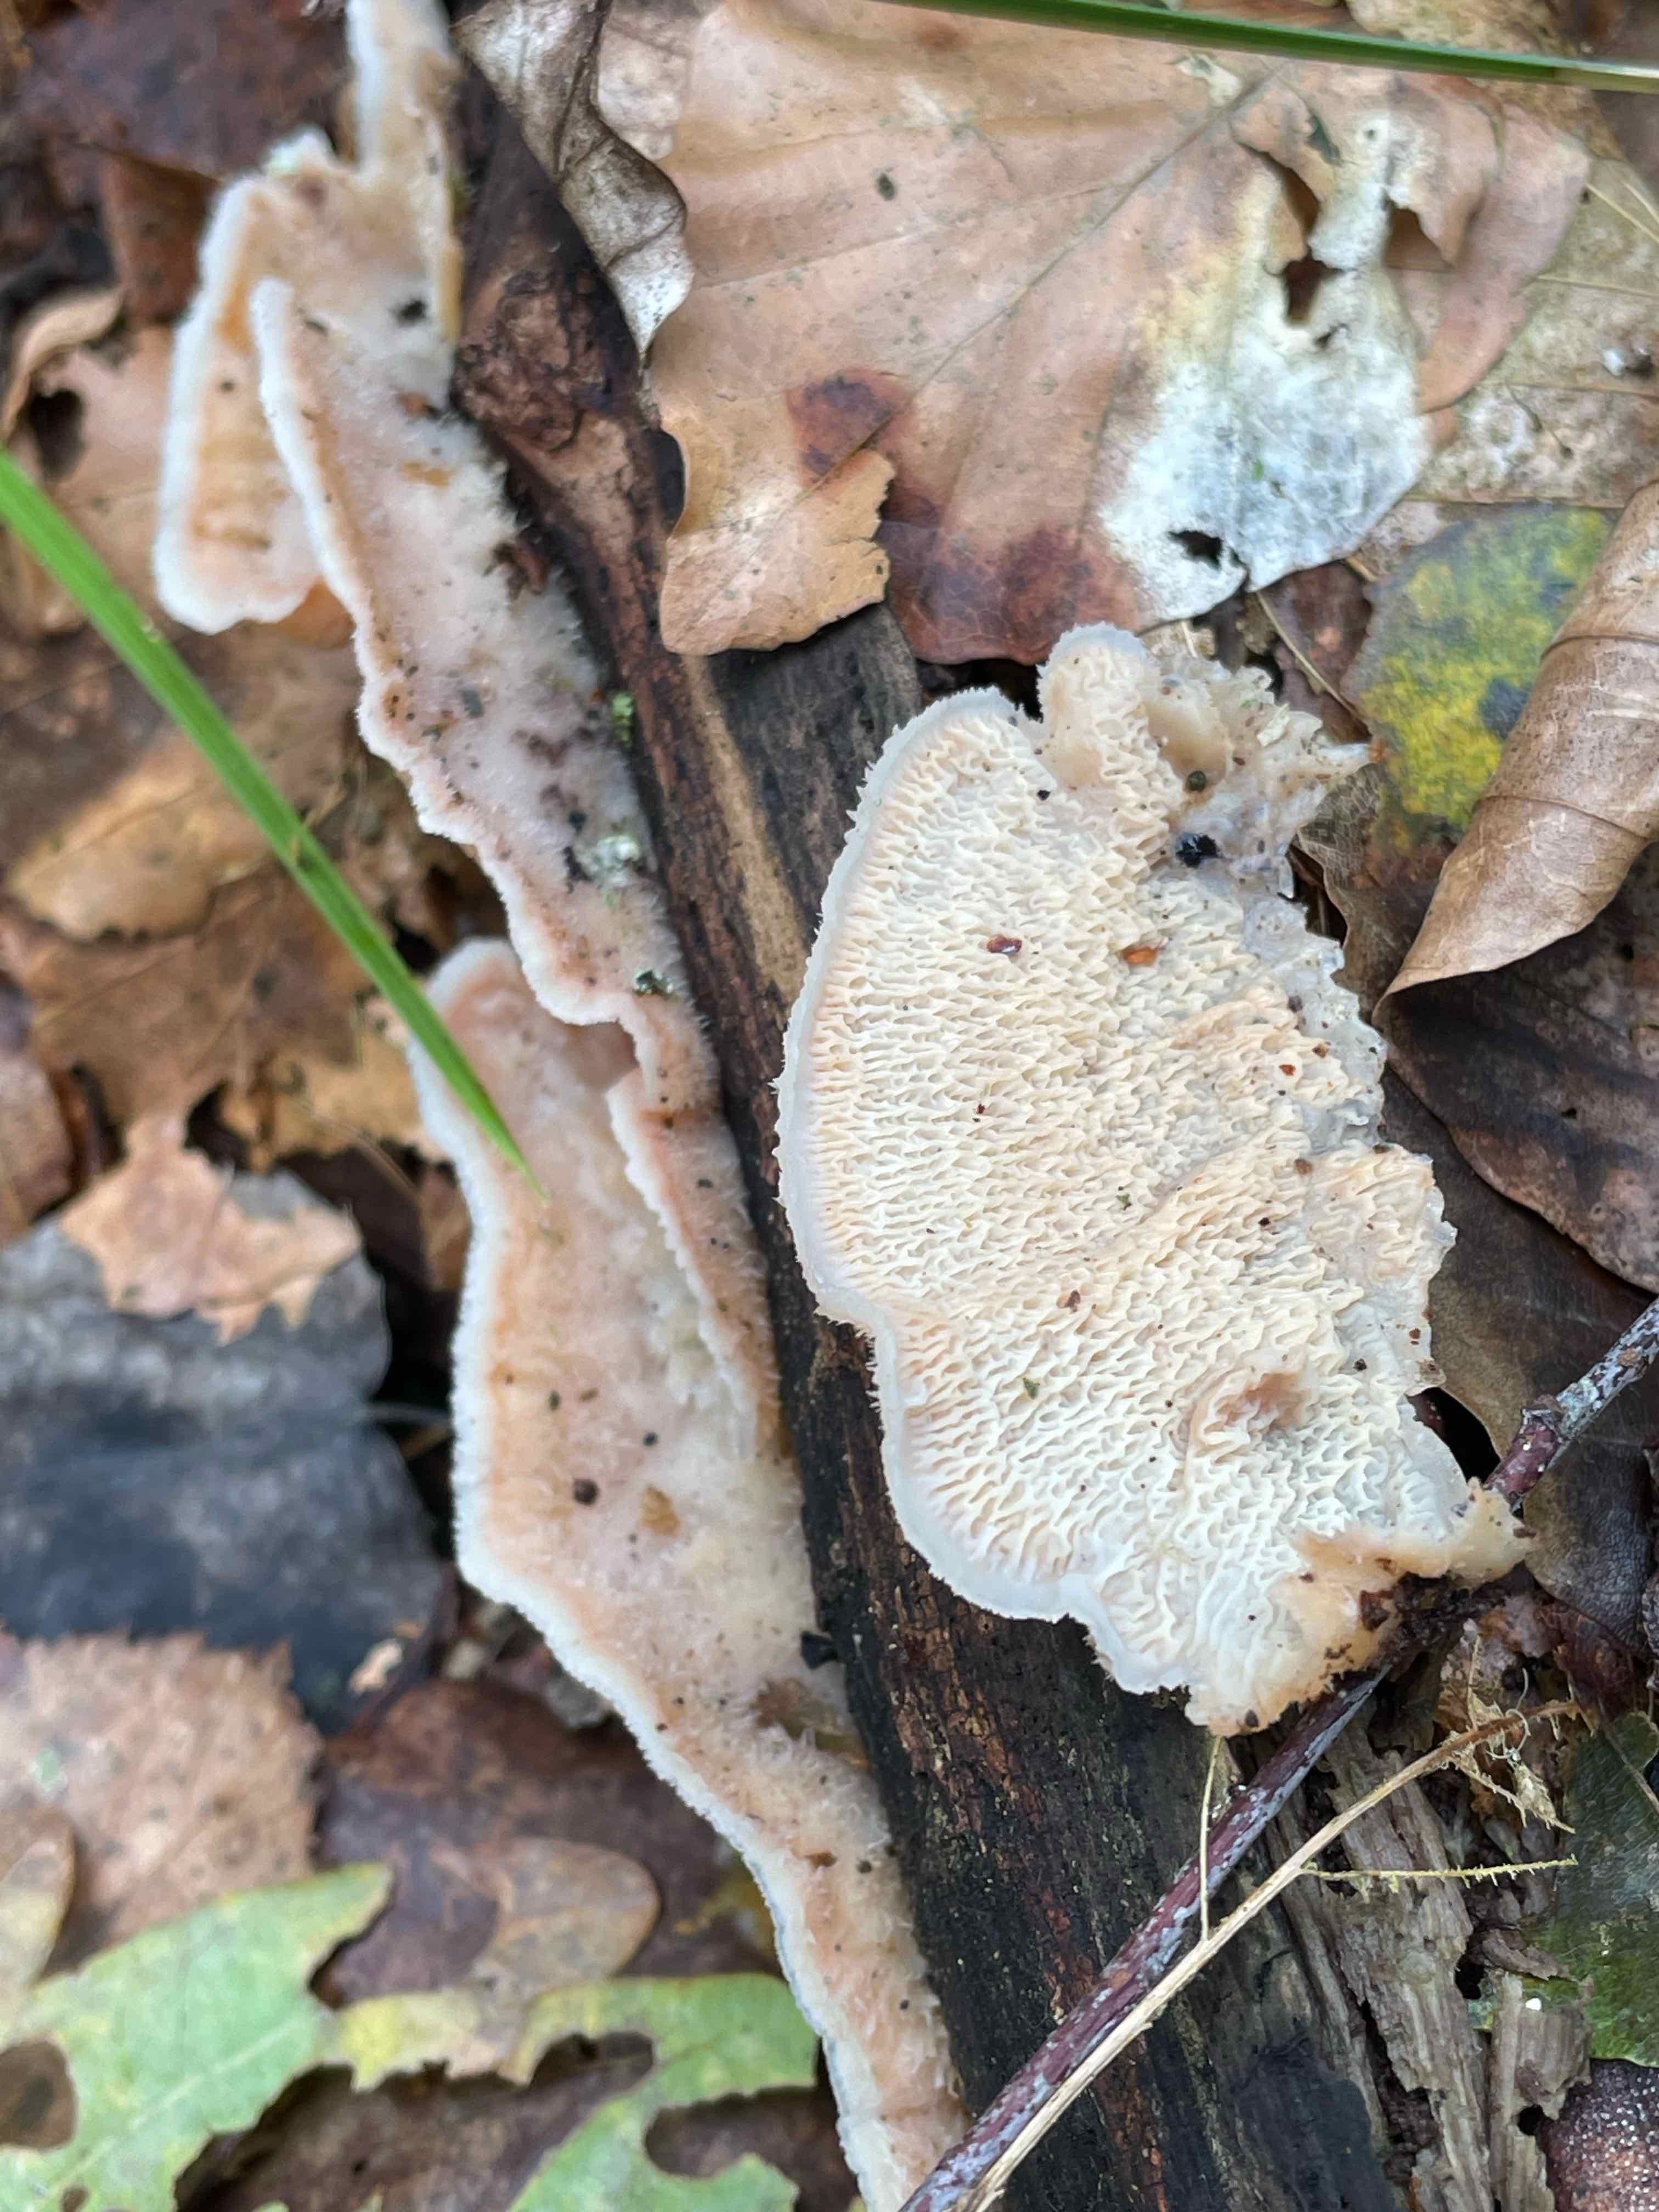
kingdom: Fungi
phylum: Basidiomycota
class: Agaricomycetes
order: Polyporales
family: Meruliaceae
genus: Phlebia
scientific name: Phlebia tremellosa
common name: bævrende åresvamp
